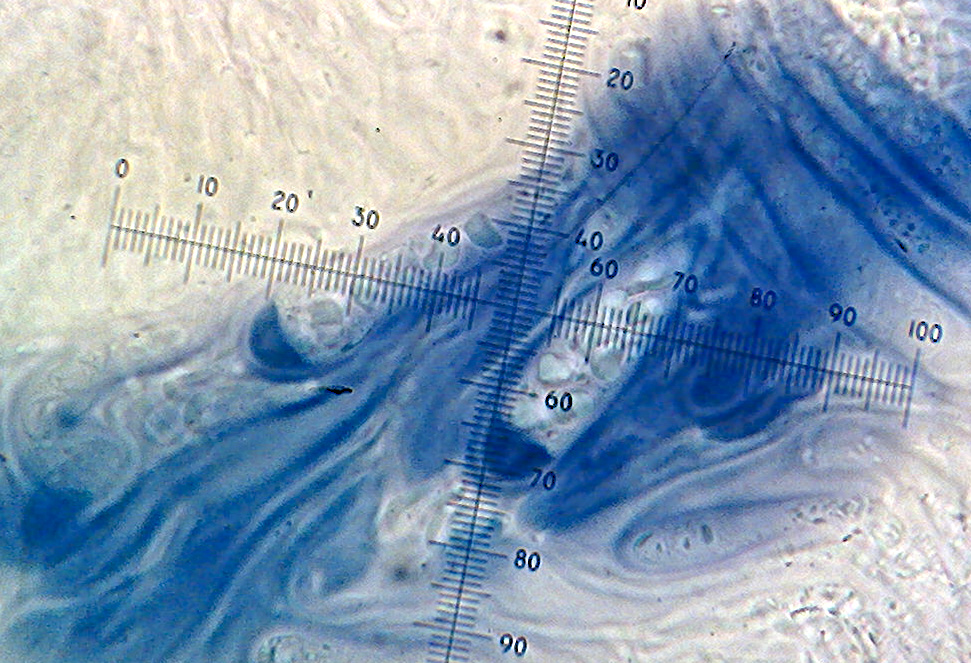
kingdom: Fungi
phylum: Ascomycota
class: Lecanoromycetes
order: Lecanorales
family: Lecanoraceae
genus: Lecidella
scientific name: Lecidella elaeochroma
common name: grågrøn skivelav
